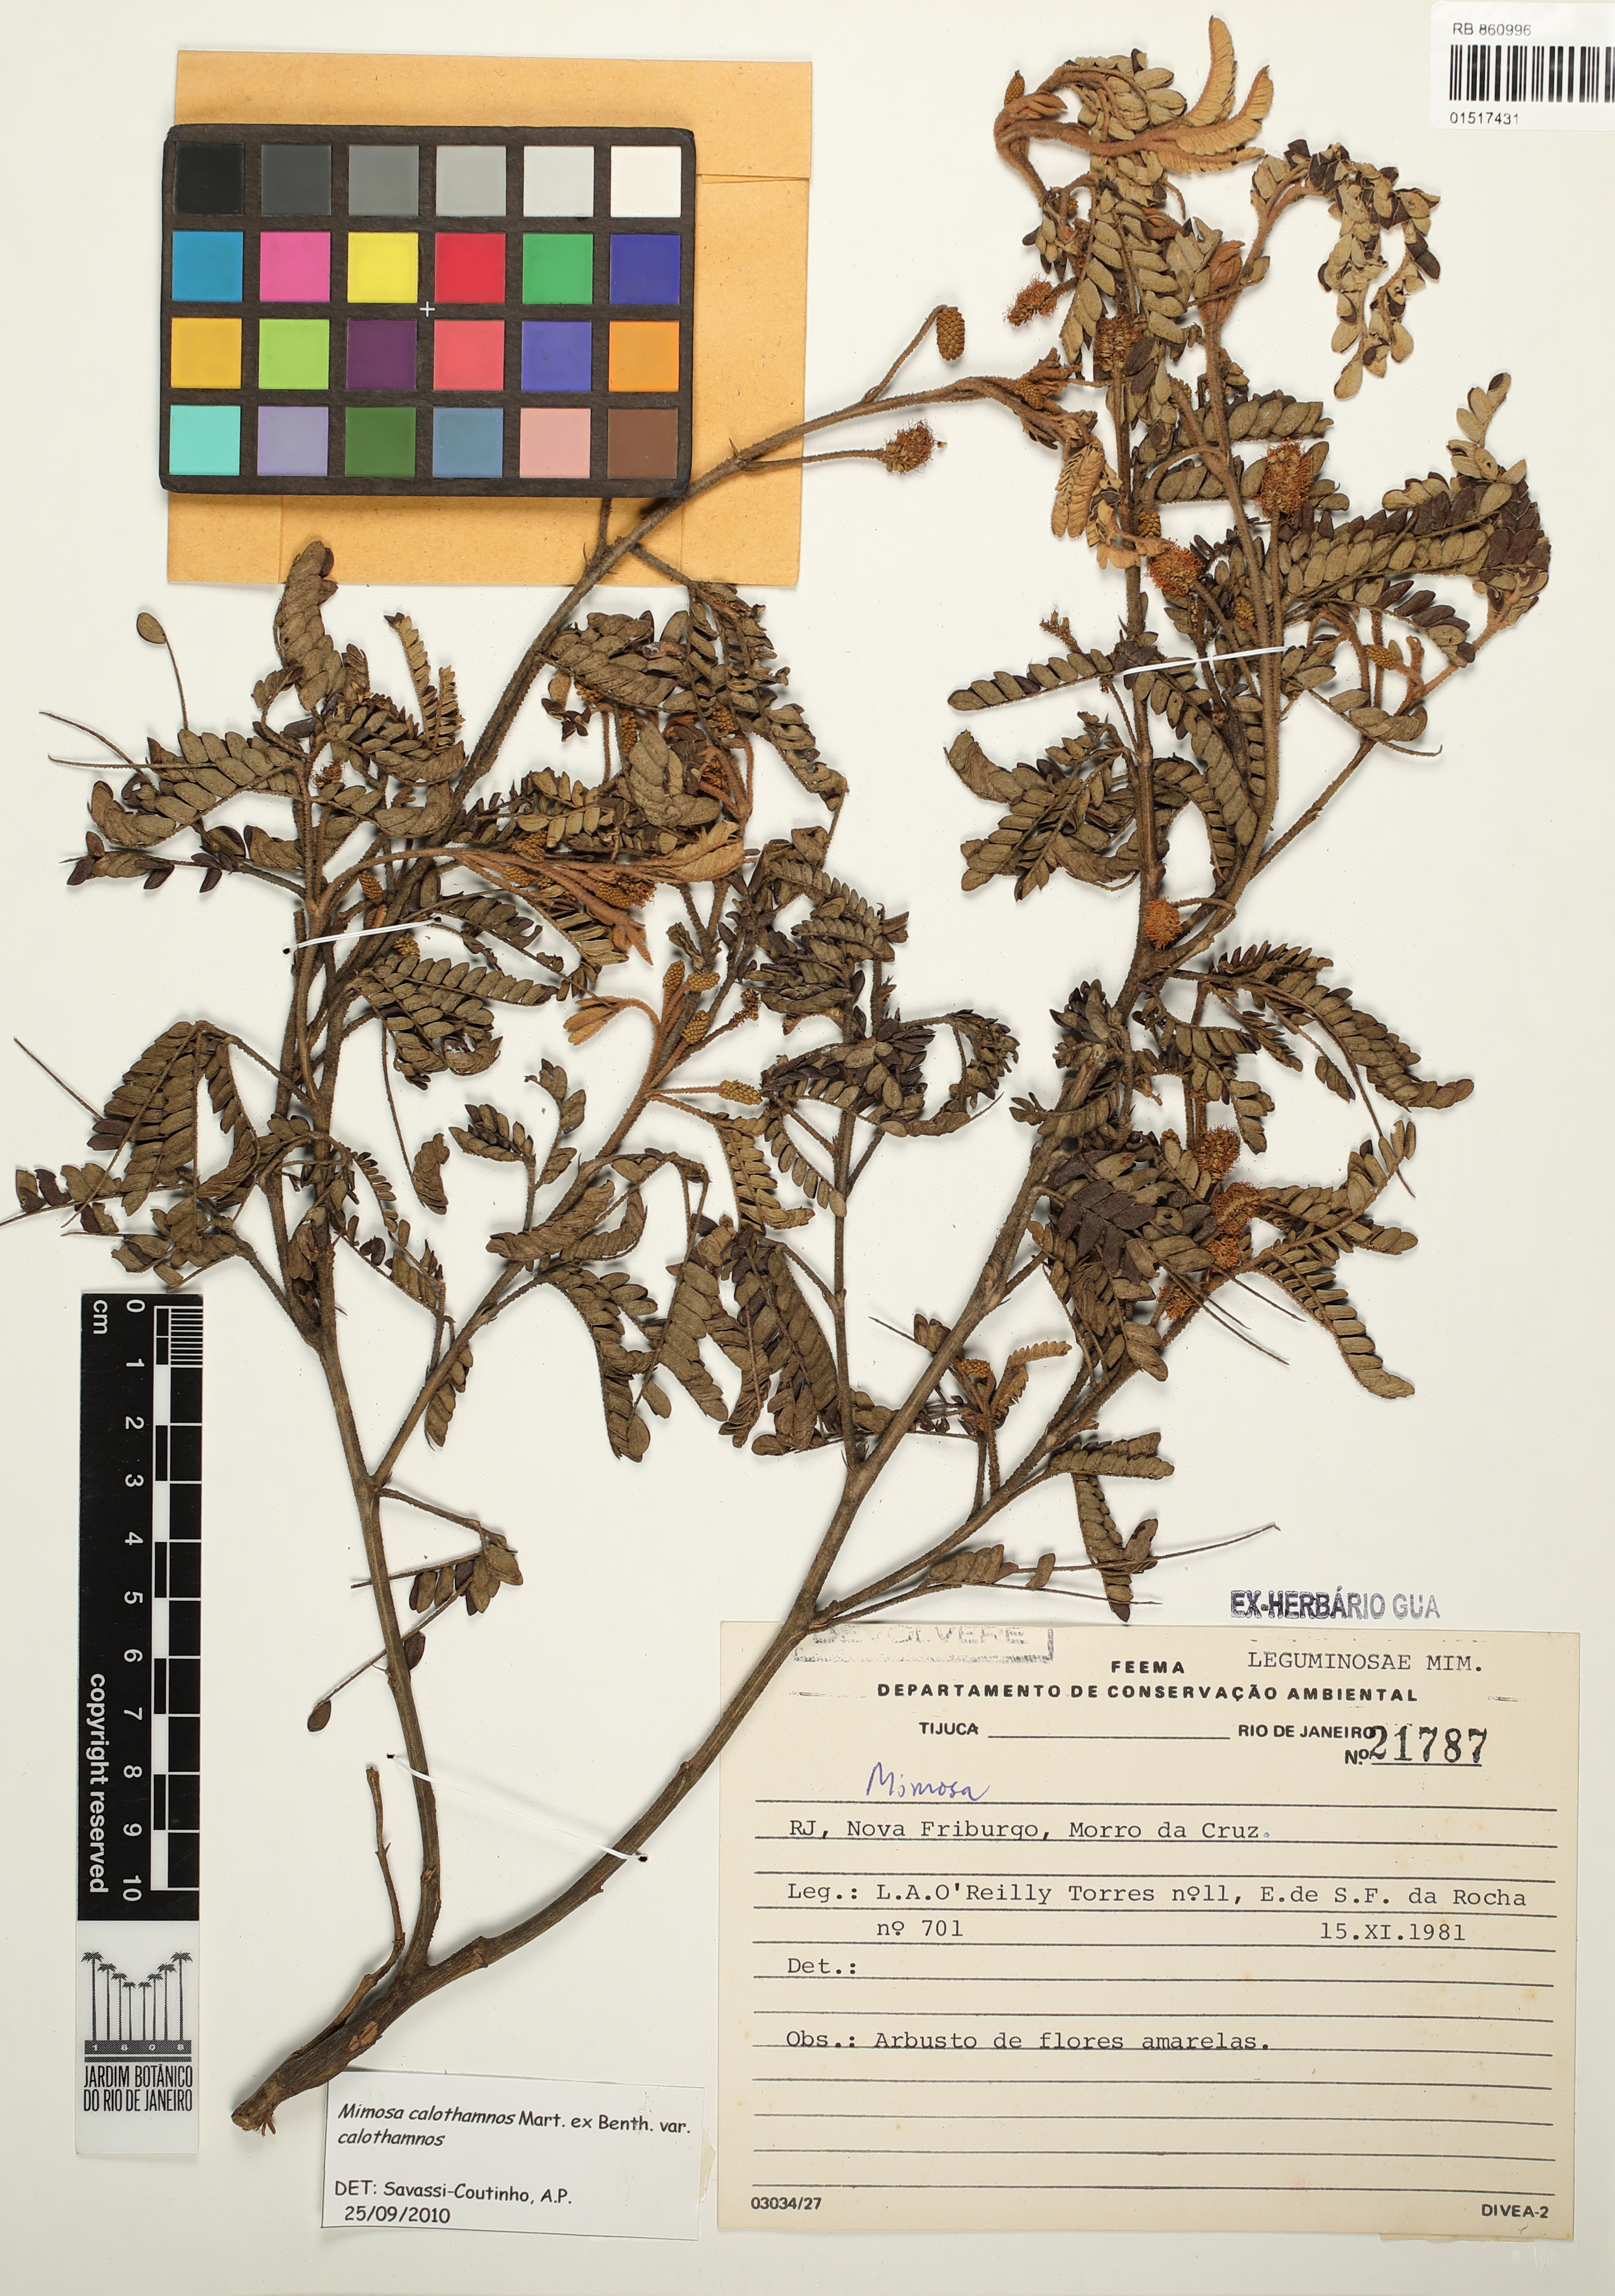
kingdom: Plantae
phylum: Tracheophyta
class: Magnoliopsida
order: Fabales
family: Fabaceae
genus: Mimosa
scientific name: Mimosa aurivillus
